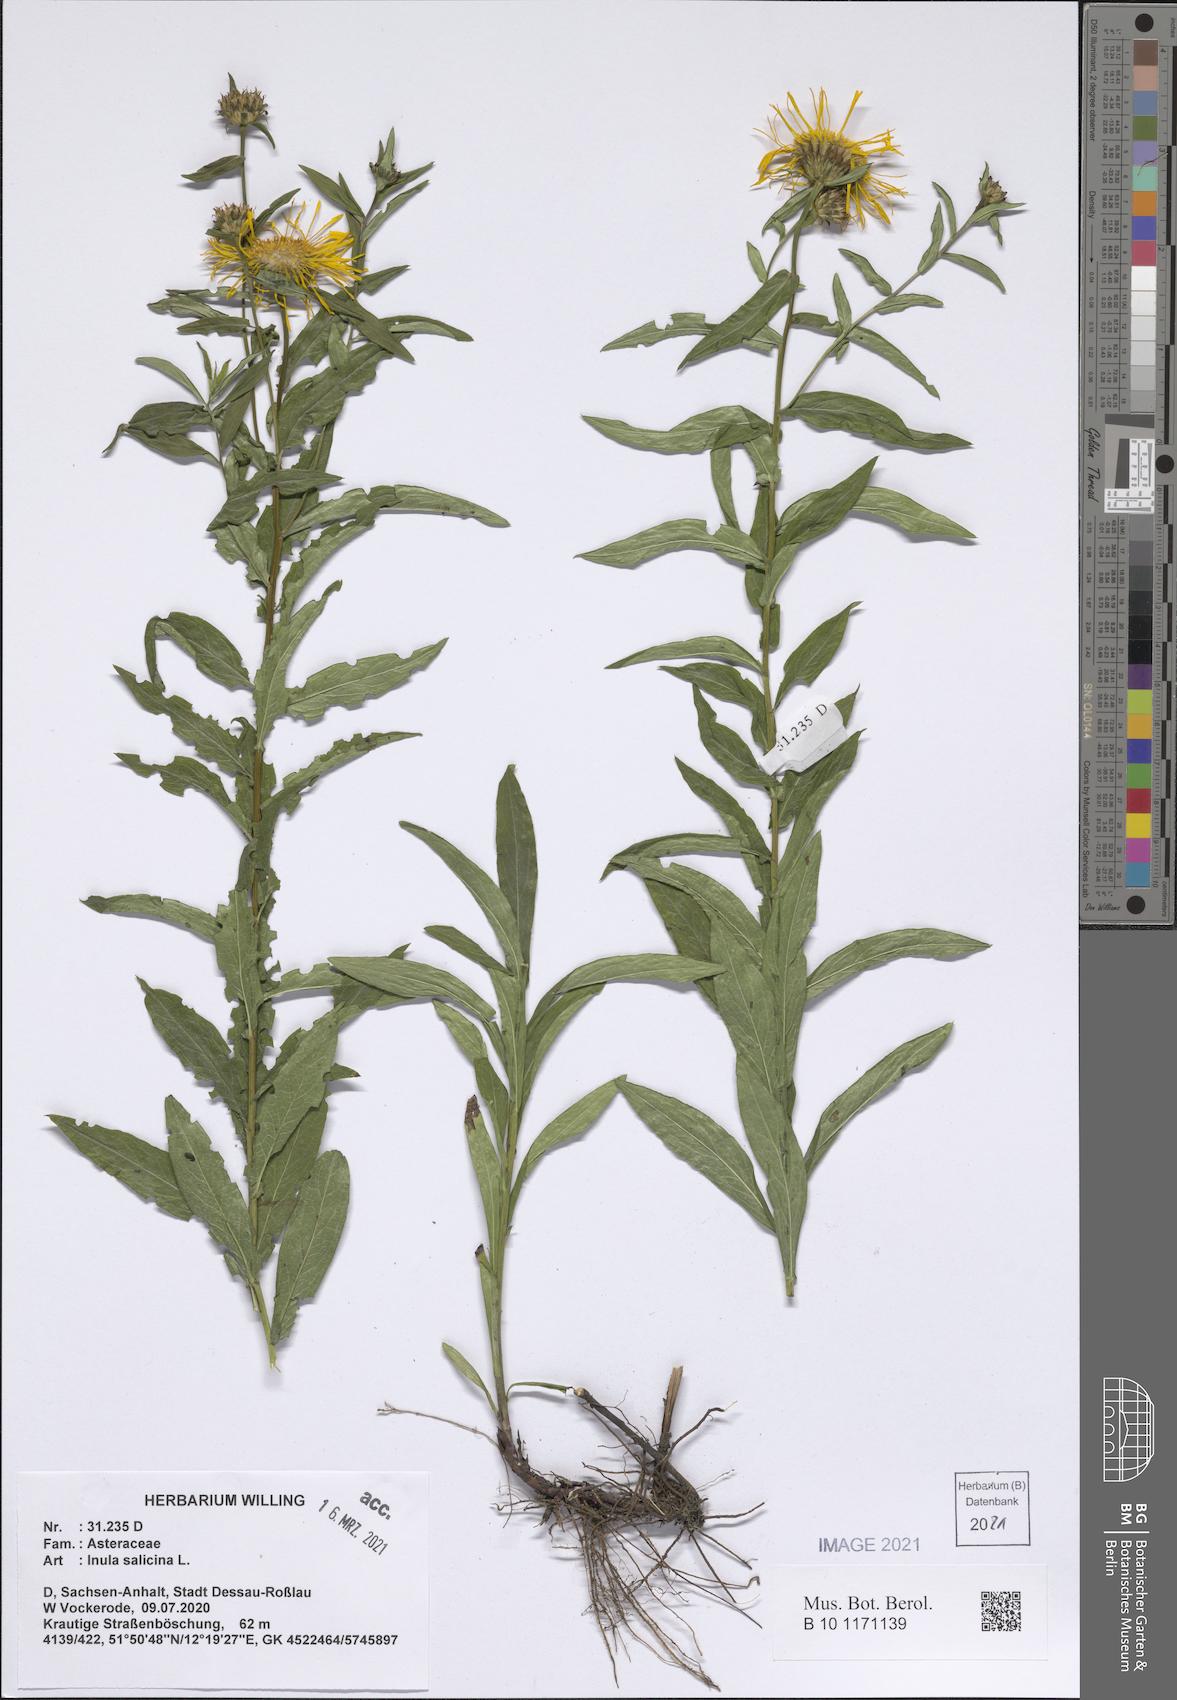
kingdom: Plantae
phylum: Tracheophyta
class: Magnoliopsida
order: Asterales
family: Asteraceae
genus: Pentanema
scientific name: Pentanema salicinum
